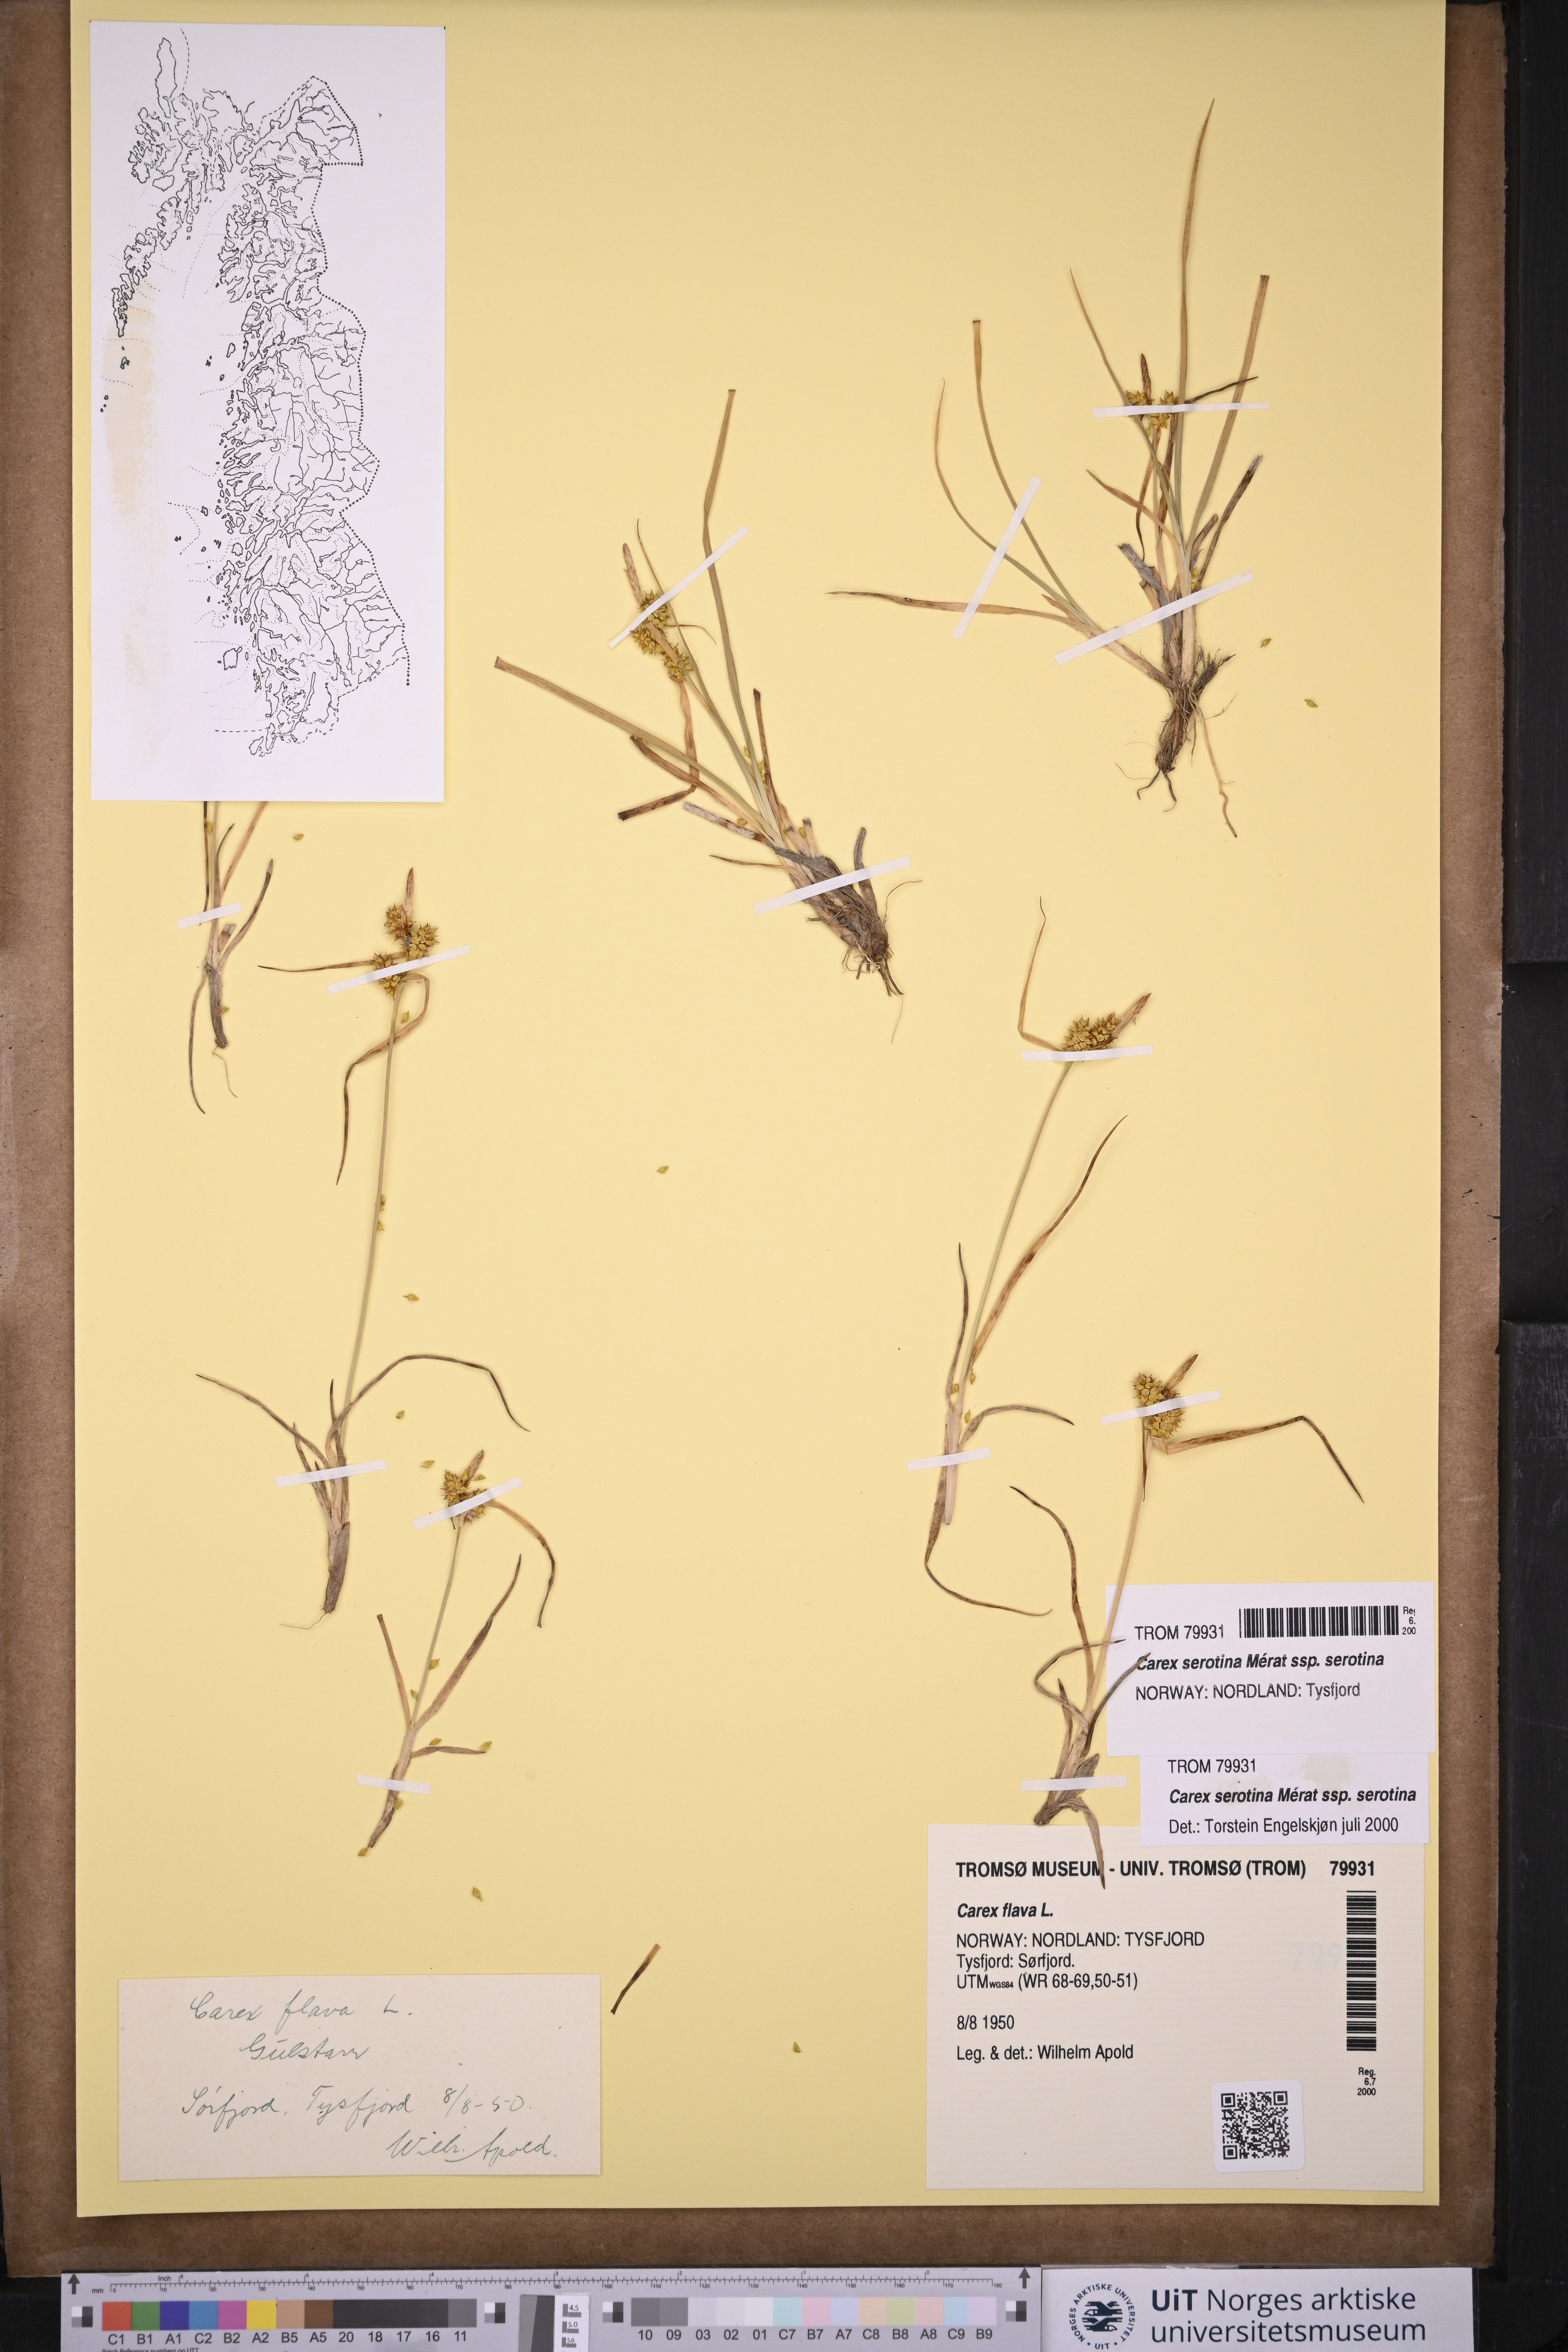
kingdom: Plantae
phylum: Tracheophyta
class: Liliopsida
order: Poales
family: Cyperaceae
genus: Carex
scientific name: Carex oederi
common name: Common & small-fruited yellow-sedge
